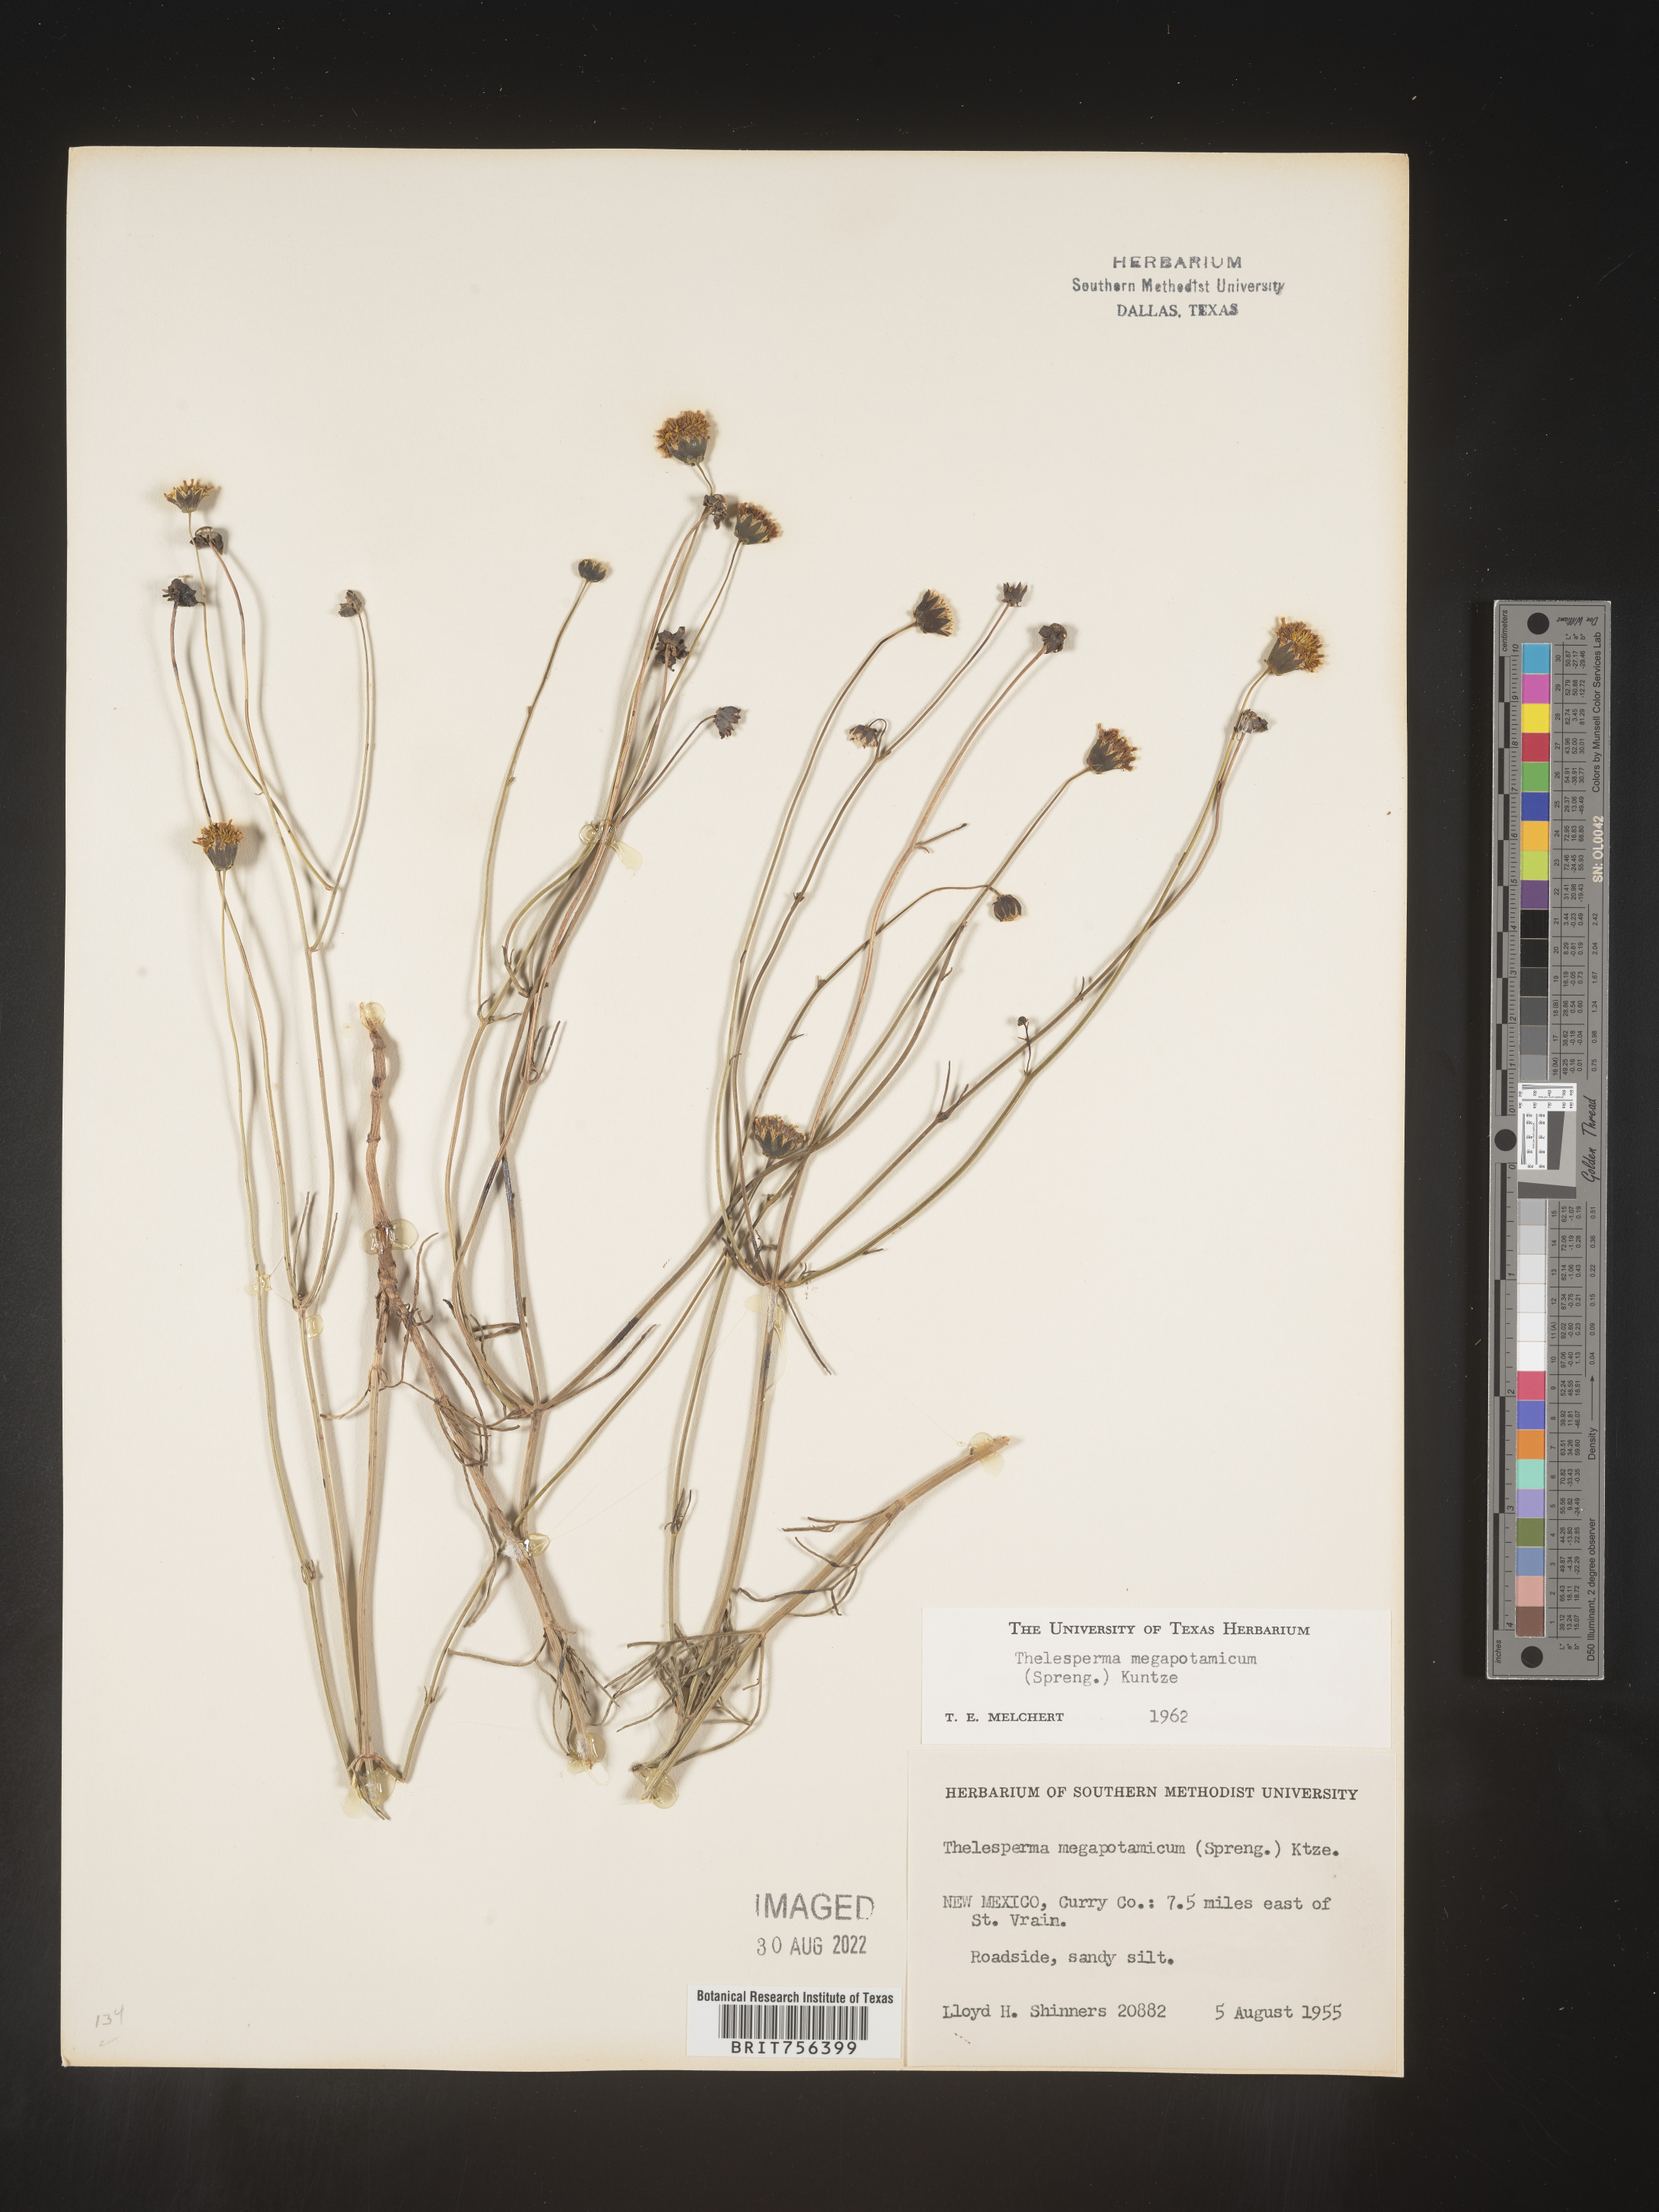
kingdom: Plantae
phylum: Tracheophyta
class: Magnoliopsida
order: Asterales
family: Asteraceae
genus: Thelesperma
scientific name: Thelesperma megapotamicum
